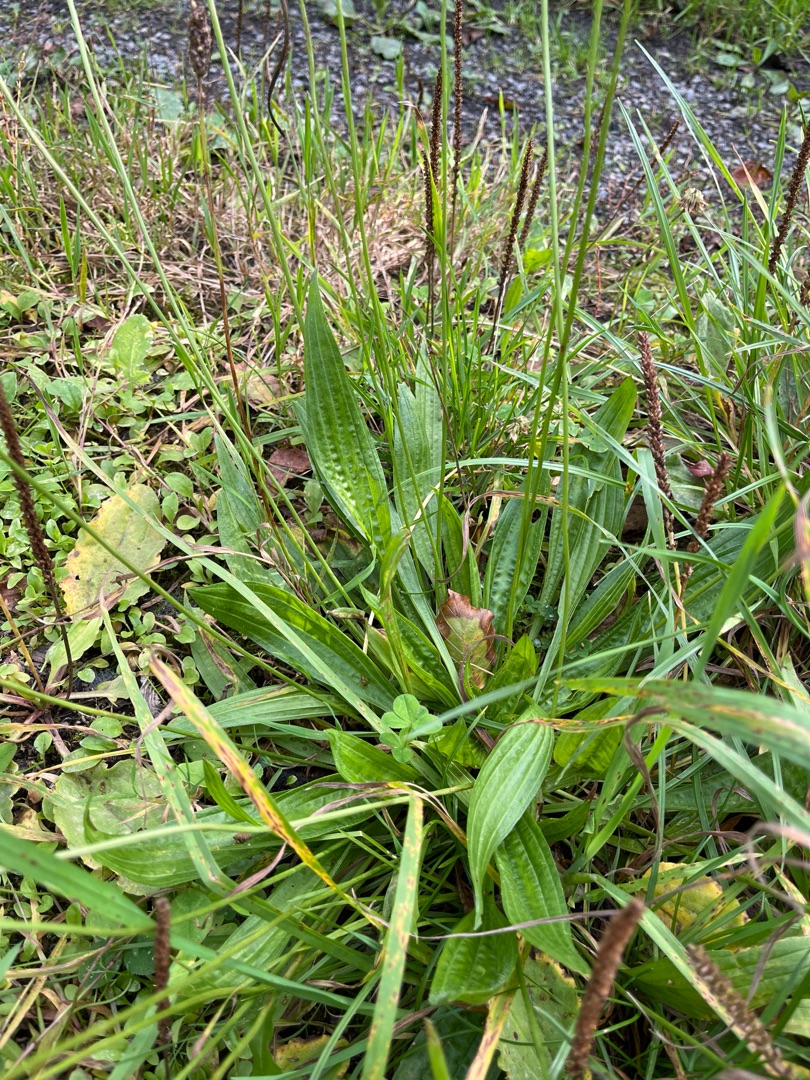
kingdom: Plantae
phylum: Tracheophyta
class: Magnoliopsida
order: Lamiales
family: Plantaginaceae
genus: Plantago
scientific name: Plantago lanceolata
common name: Lancet-vejbred
